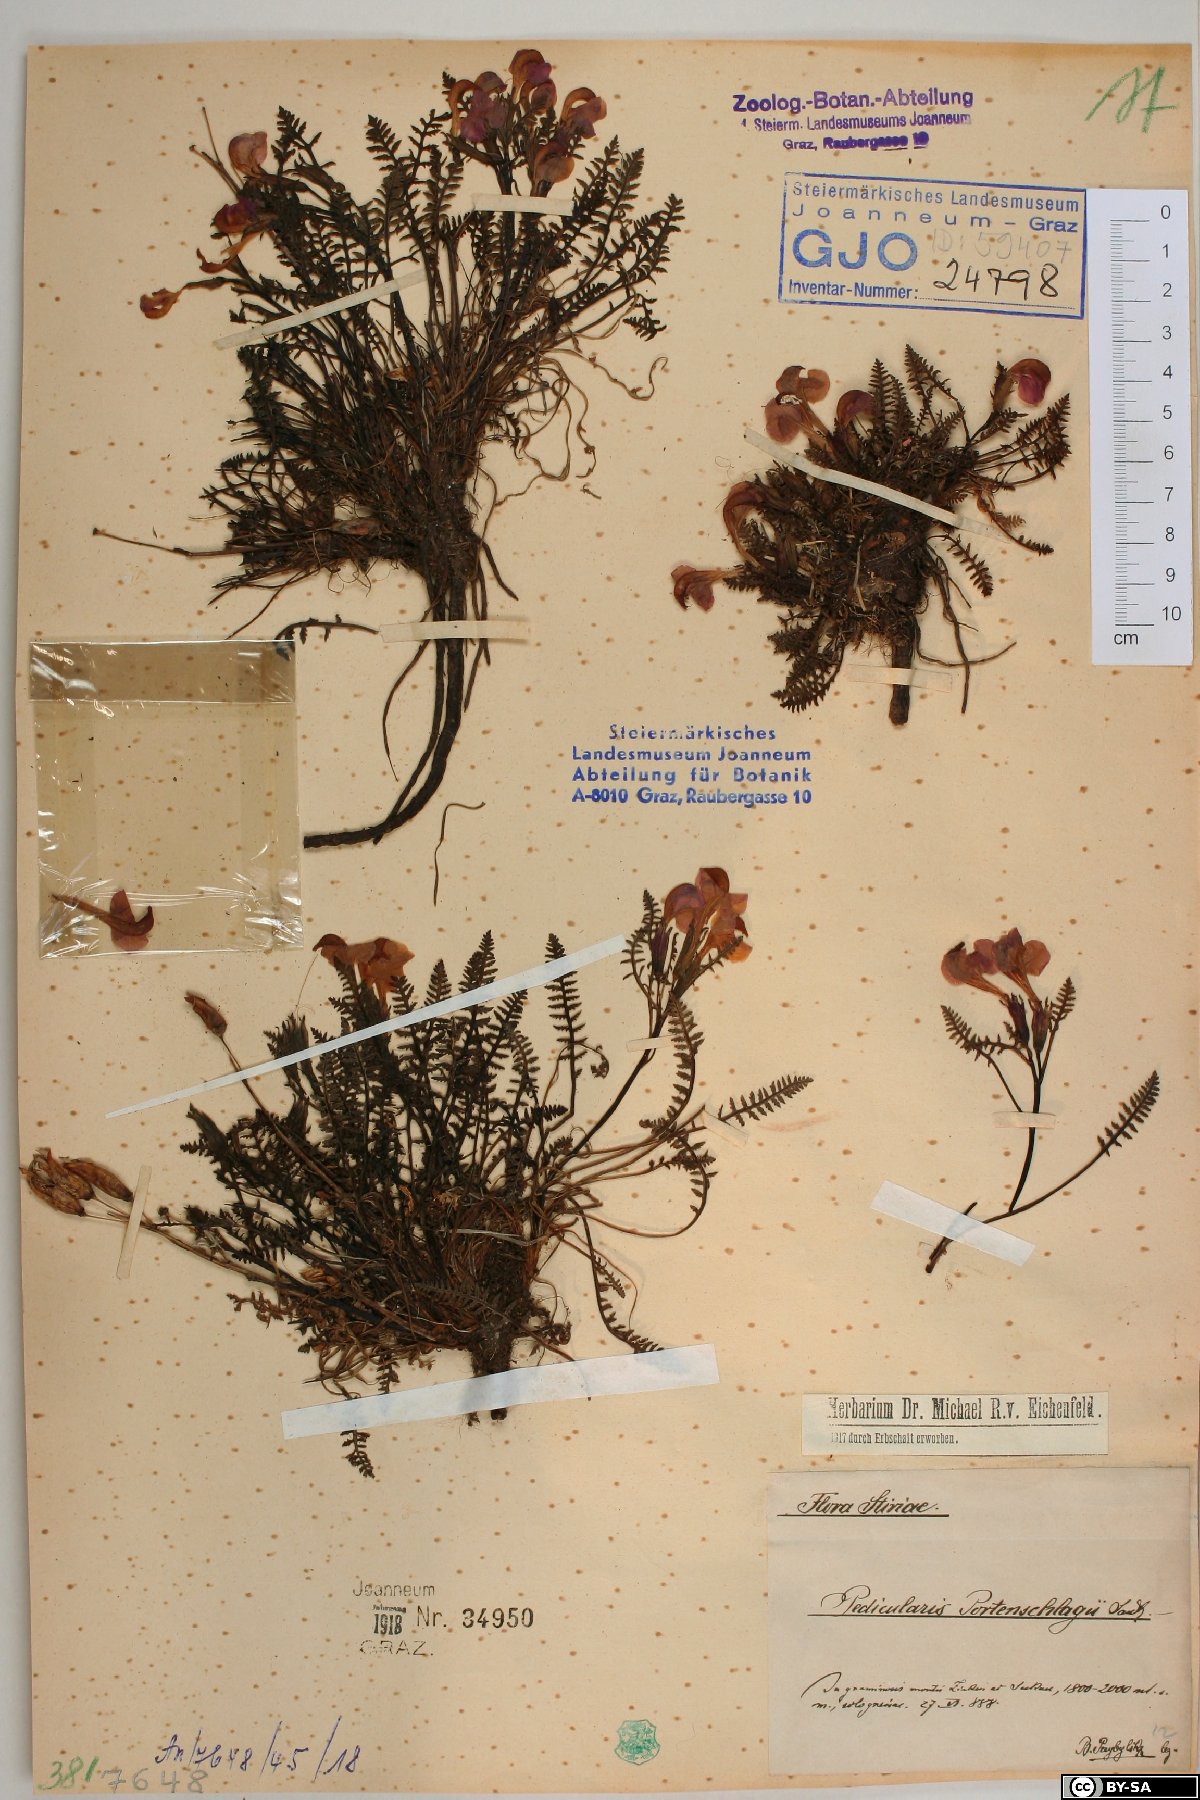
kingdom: Plantae
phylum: Tracheophyta
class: Magnoliopsida
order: Lamiales
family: Orobanchaceae
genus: Pedicularis
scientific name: Pedicularis portenschlagii
